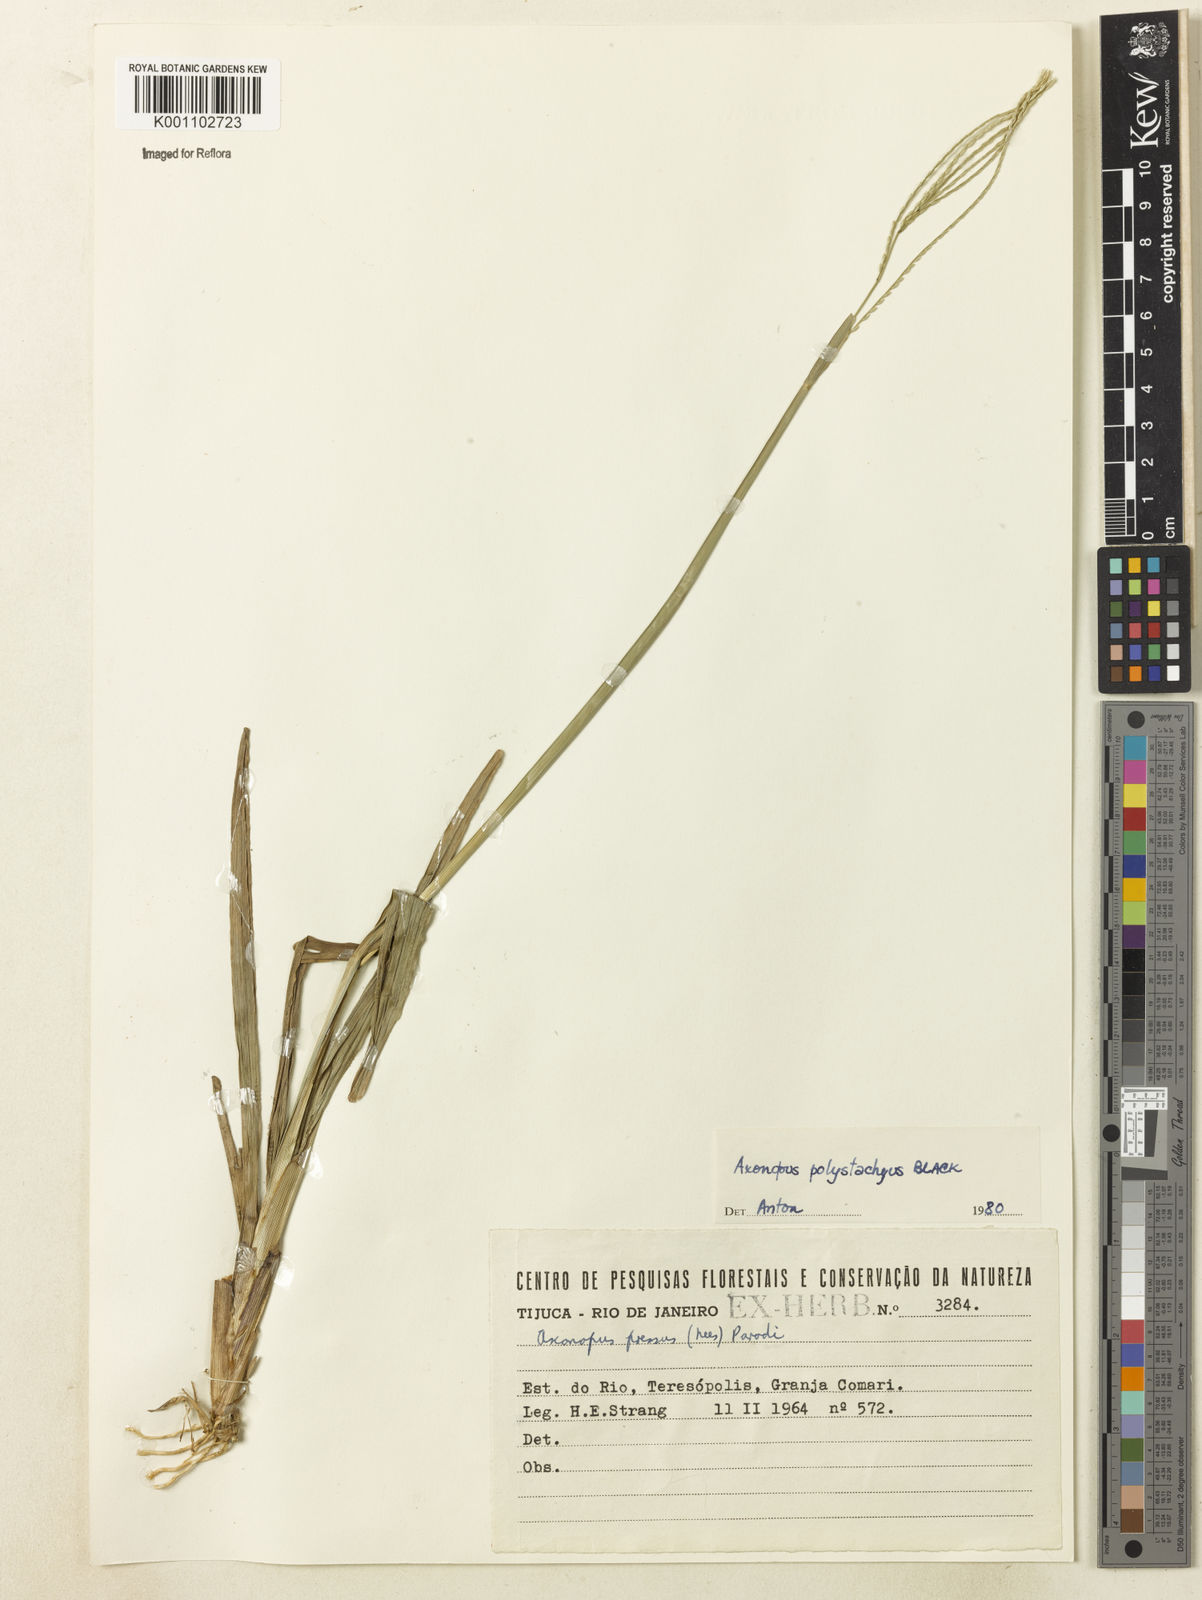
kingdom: Plantae
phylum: Tracheophyta
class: Liliopsida
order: Poales
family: Poaceae
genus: Axonopus
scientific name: Axonopus polystachyus
